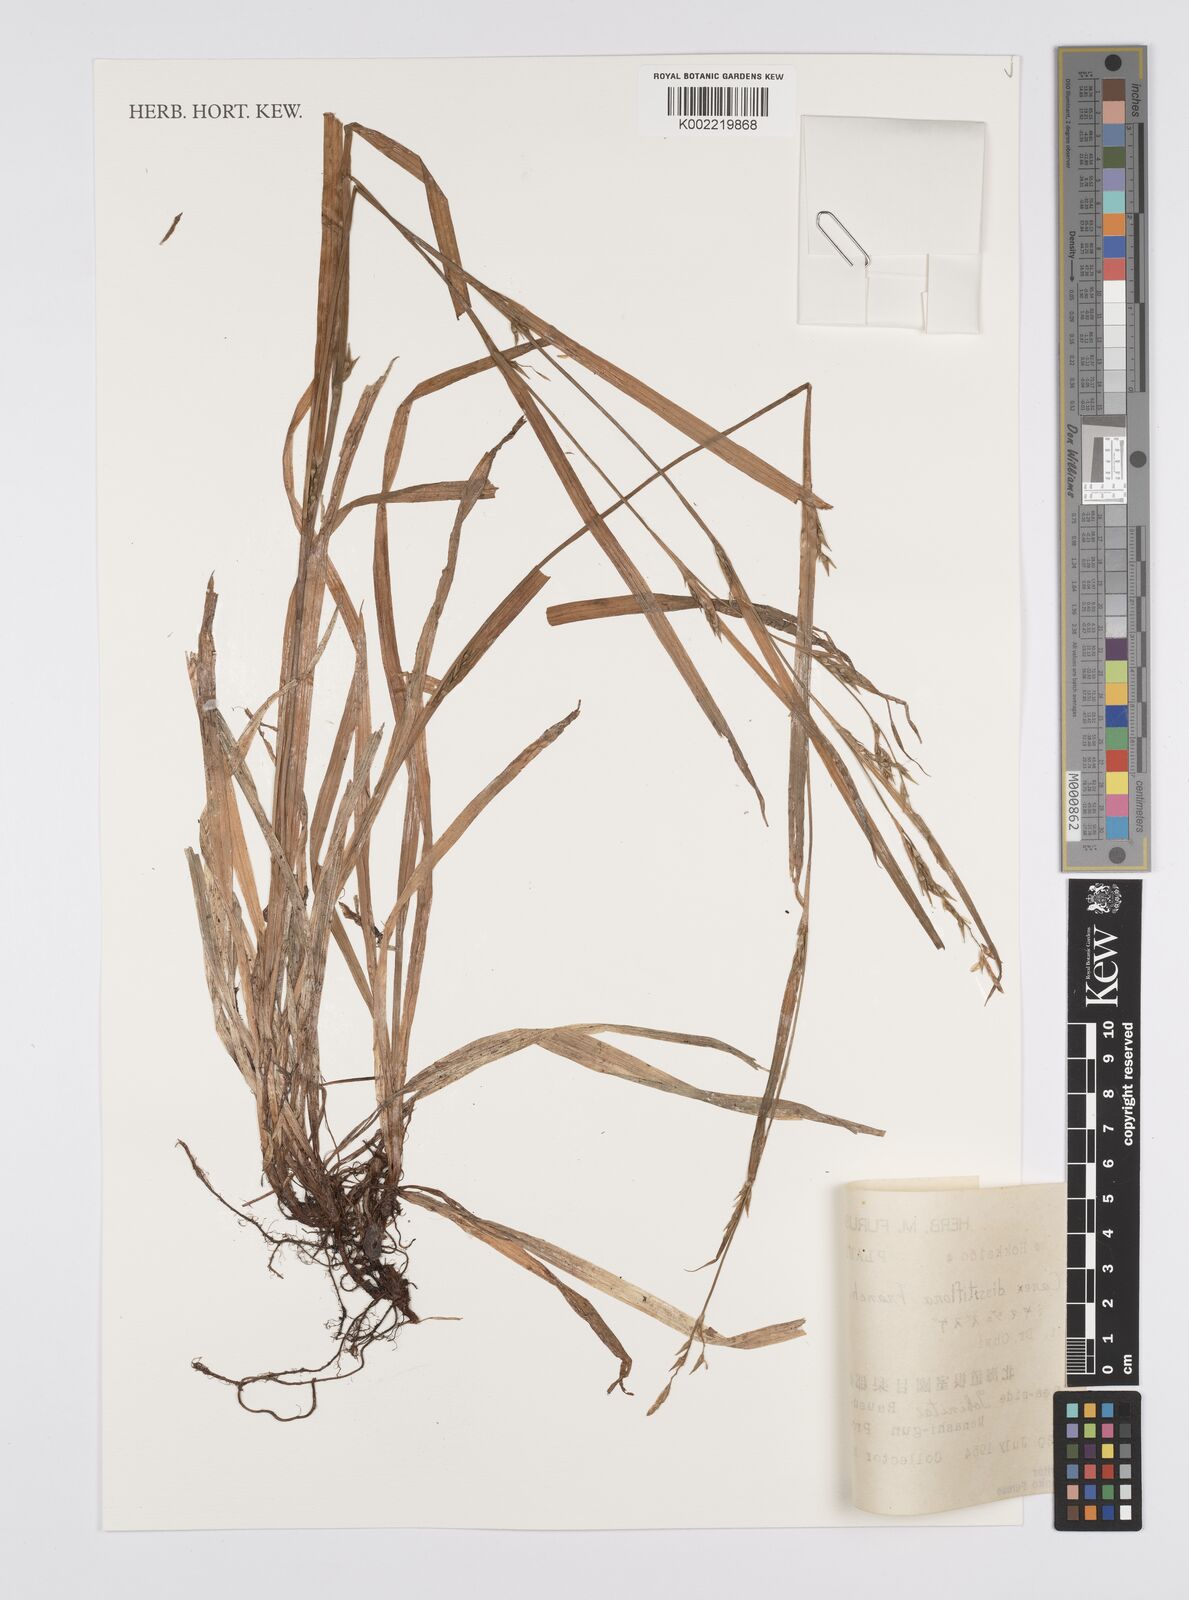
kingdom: Plantae
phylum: Tracheophyta
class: Liliopsida
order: Poales
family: Cyperaceae
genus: Carex
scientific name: Carex dissitiflora
